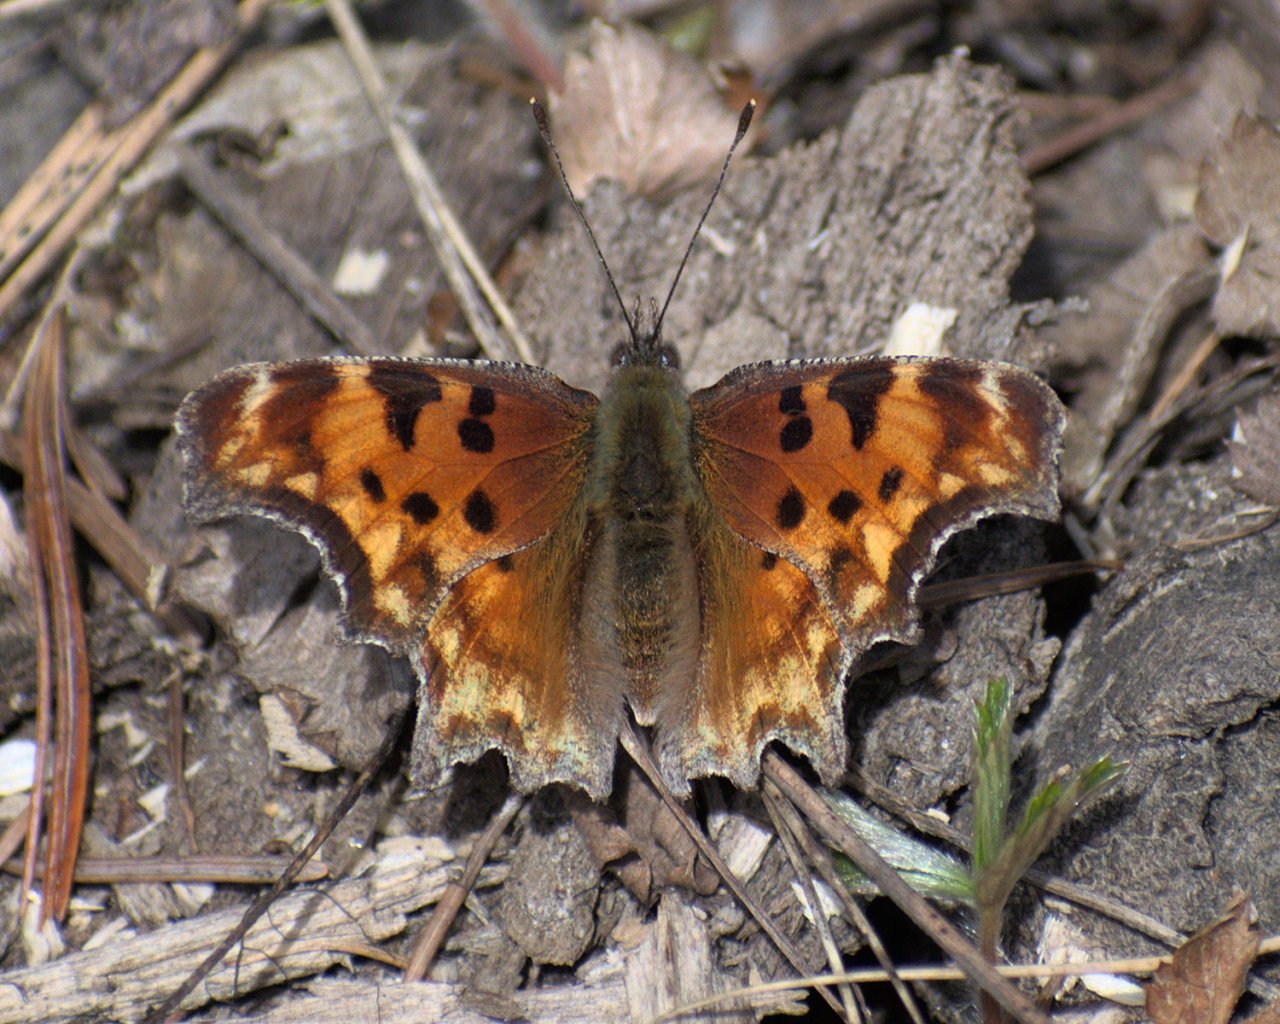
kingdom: Animalia
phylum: Arthropoda
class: Insecta
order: Lepidoptera
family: Nymphalidae
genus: Polygonia
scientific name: Polygonia gracilis
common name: Hoary Comma
